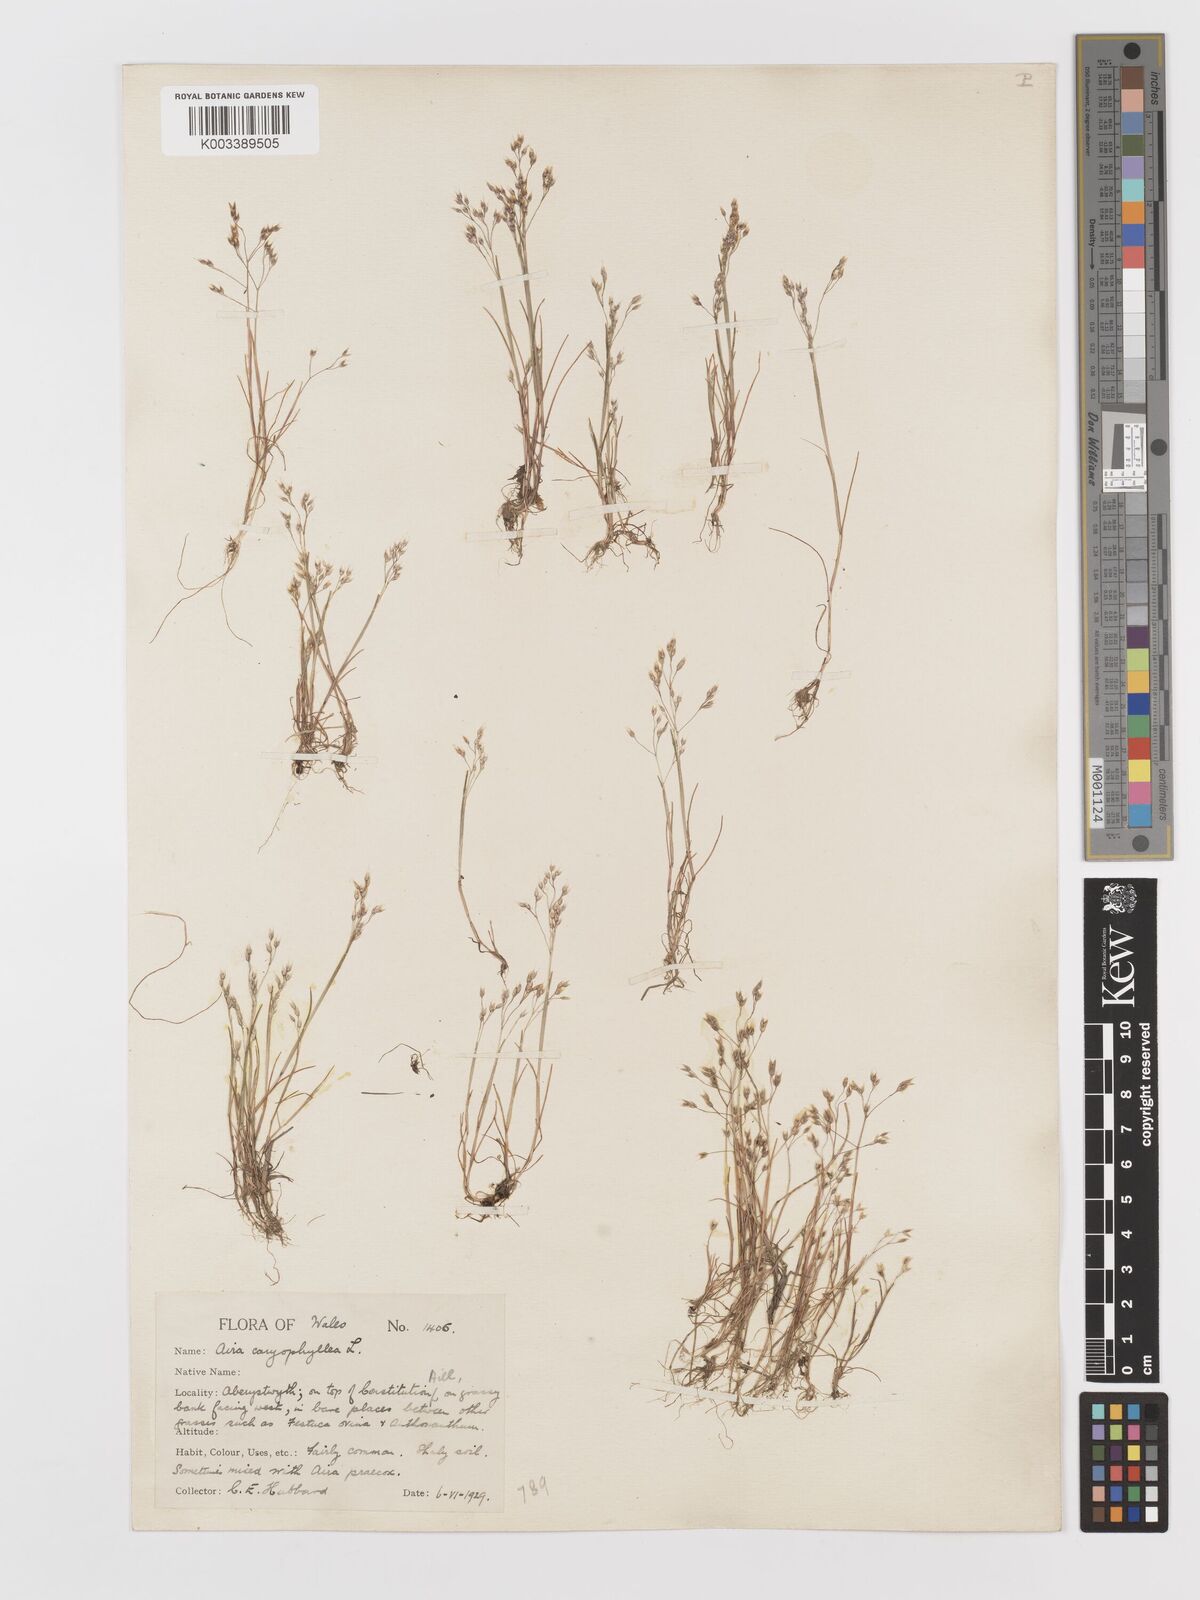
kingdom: Plantae
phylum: Tracheophyta
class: Liliopsida
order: Poales
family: Poaceae
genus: Aira
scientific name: Aira caryophyllea
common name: Silver hairgrass
